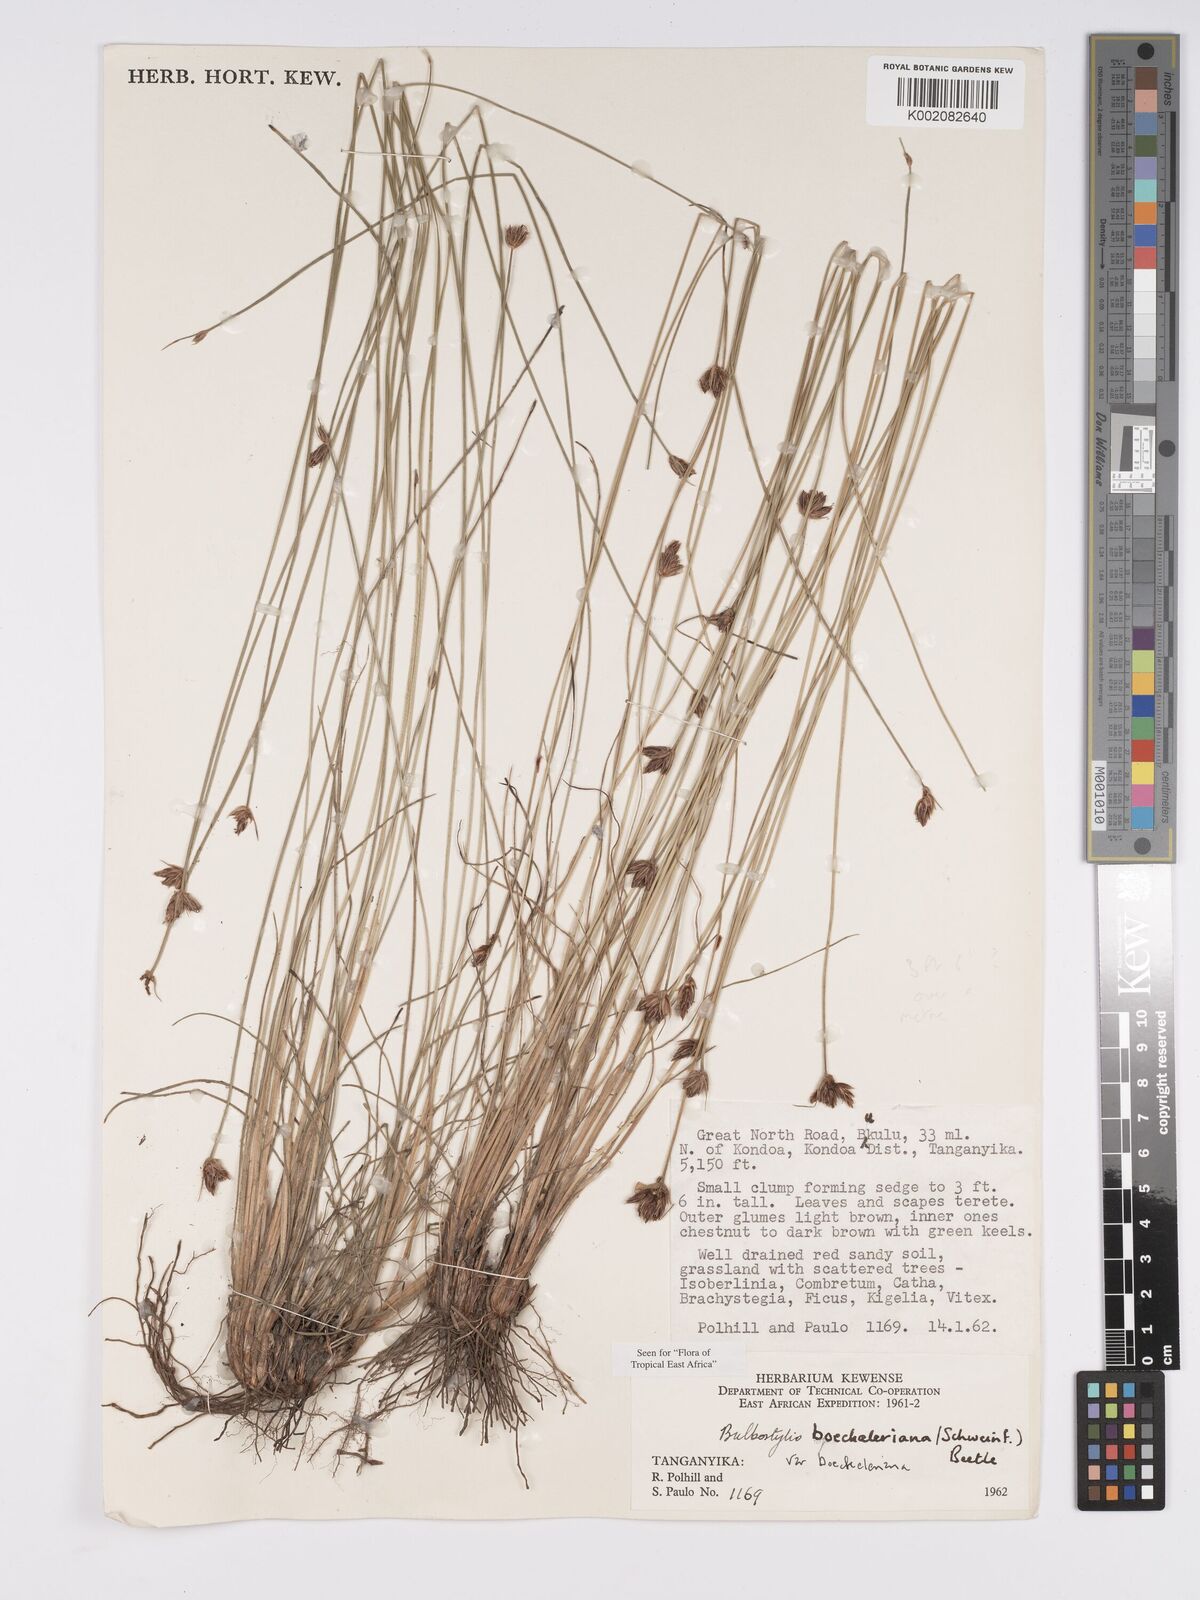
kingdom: Plantae
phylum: Tracheophyta
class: Liliopsida
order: Poales
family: Cyperaceae
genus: Bulbostylis
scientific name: Bulbostylis boeckeleriana
